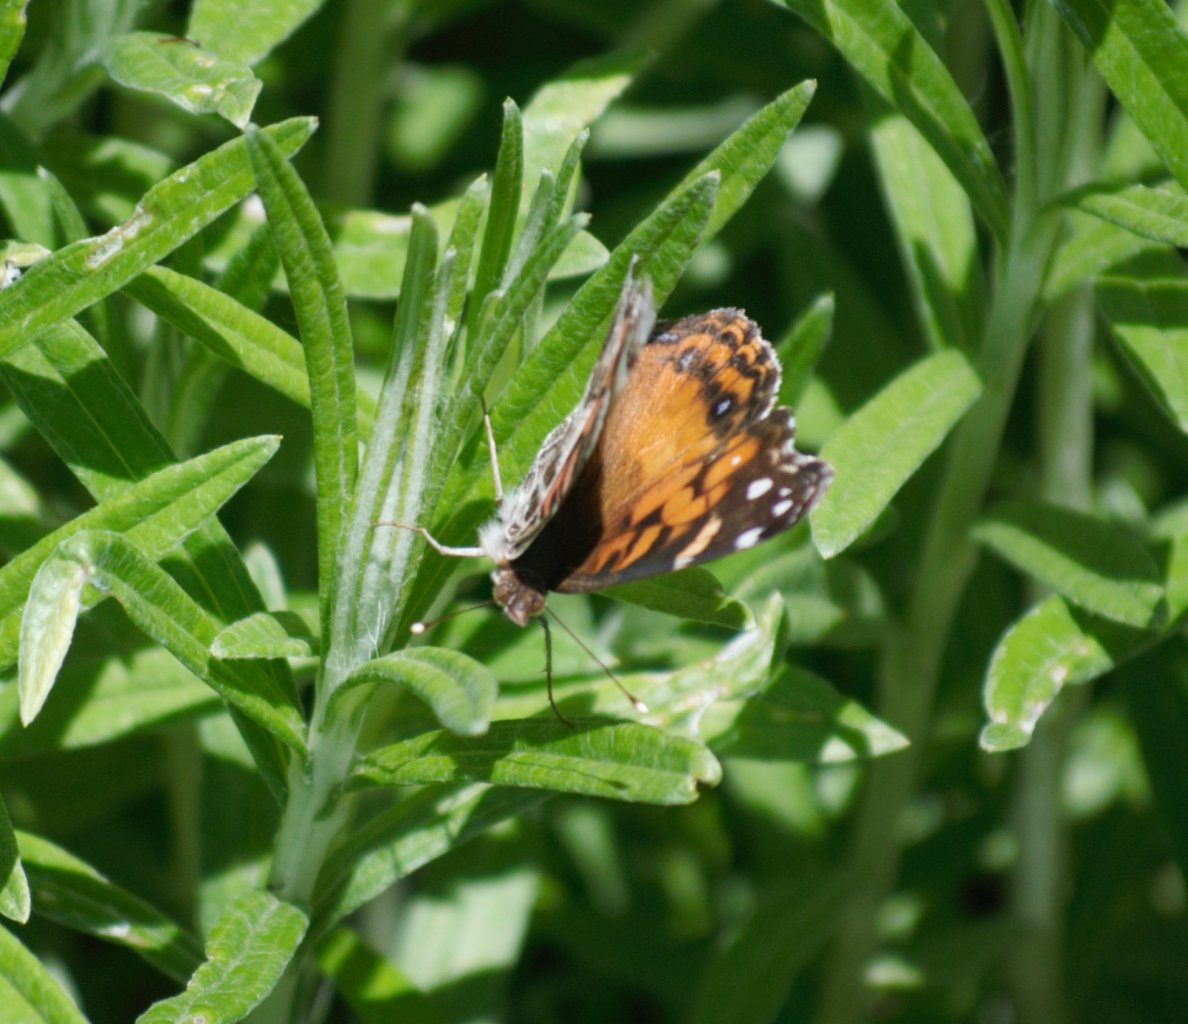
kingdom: Animalia
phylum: Arthropoda
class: Insecta
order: Lepidoptera
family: Nymphalidae
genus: Vanessa
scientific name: Vanessa virginiensis
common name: American Lady
